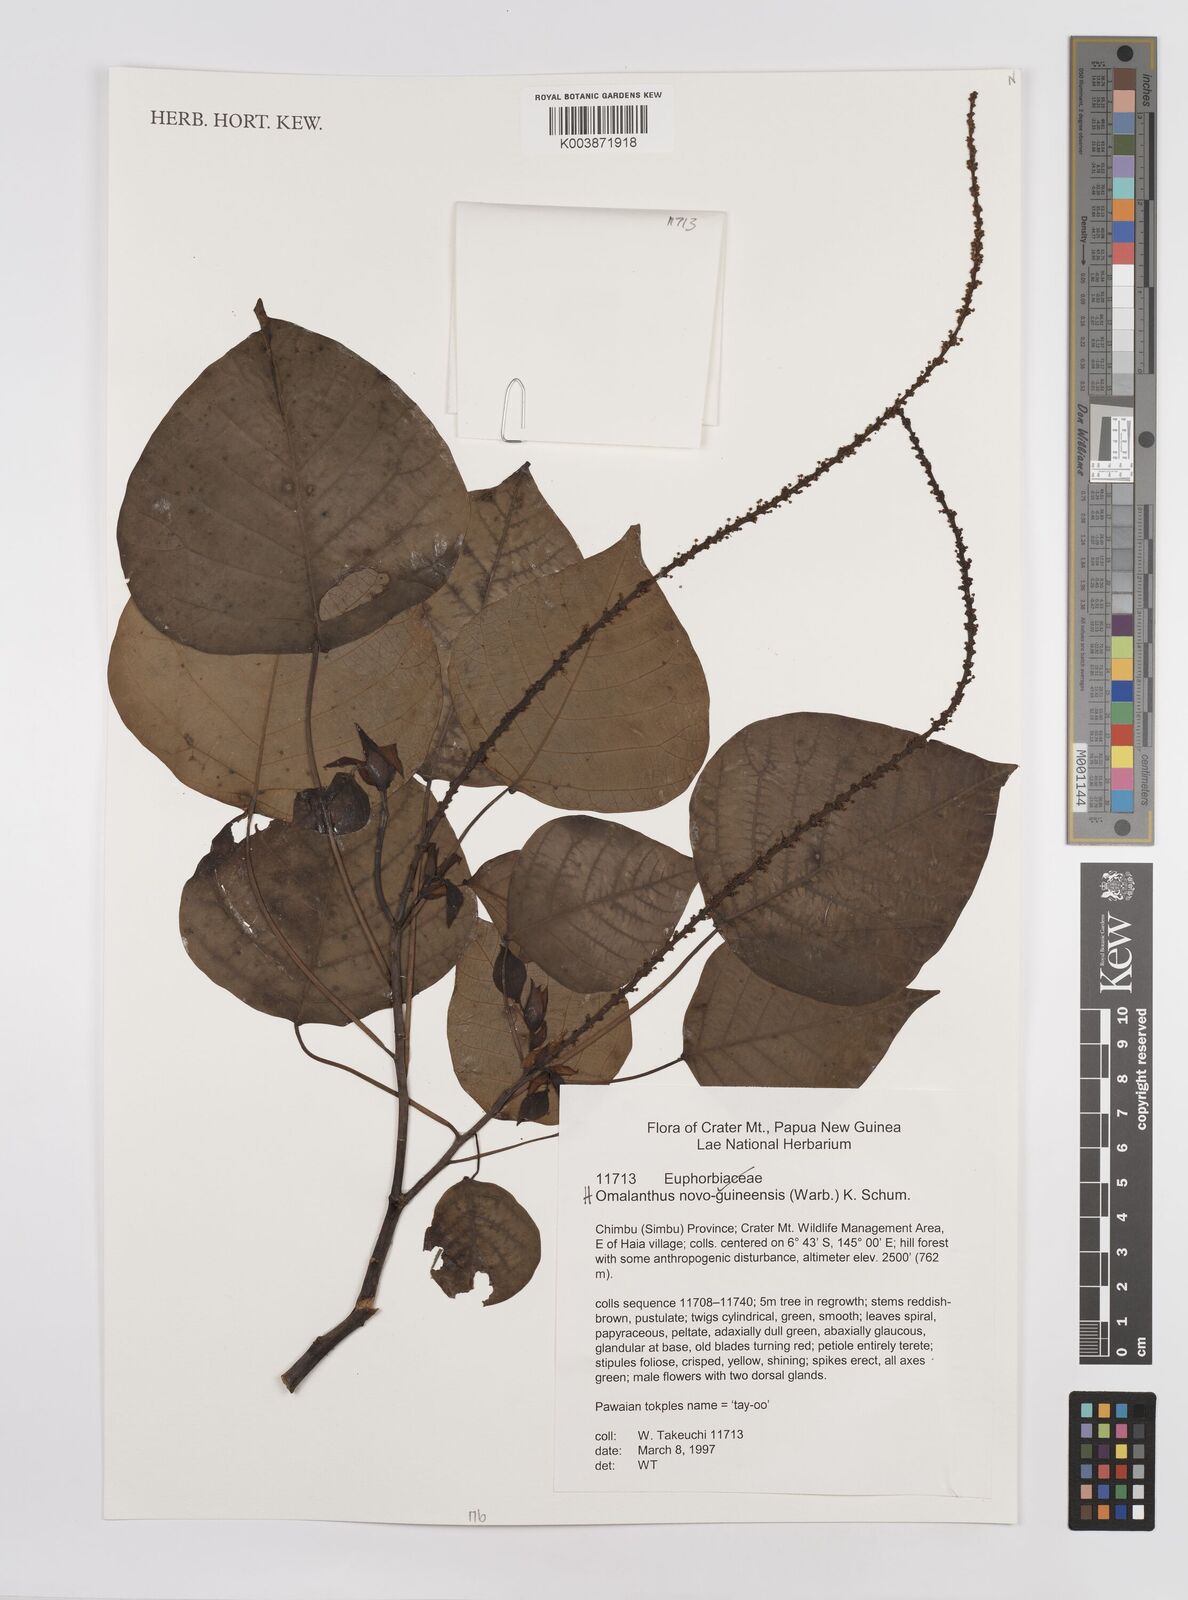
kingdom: Plantae
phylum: Tracheophyta
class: Magnoliopsida
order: Malpighiales
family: Euphorbiaceae
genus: Homalanthus
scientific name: Homalanthus novoguineensis
